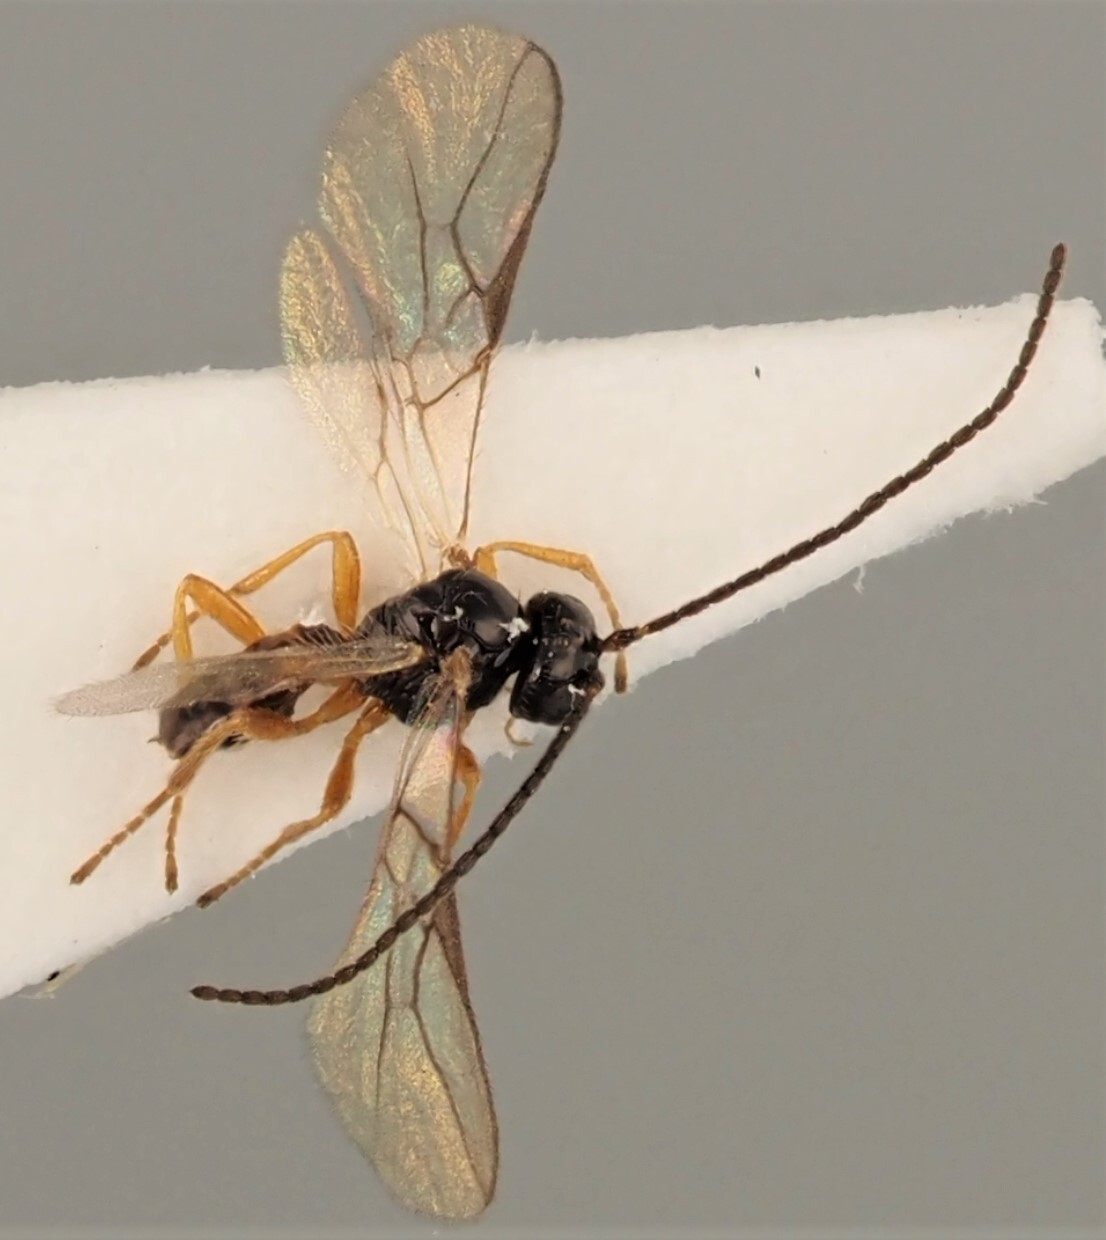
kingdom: Animalia
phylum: Arthropoda
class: Insecta
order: Hymenoptera
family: Braconidae
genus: Opius
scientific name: Opius longicornis
